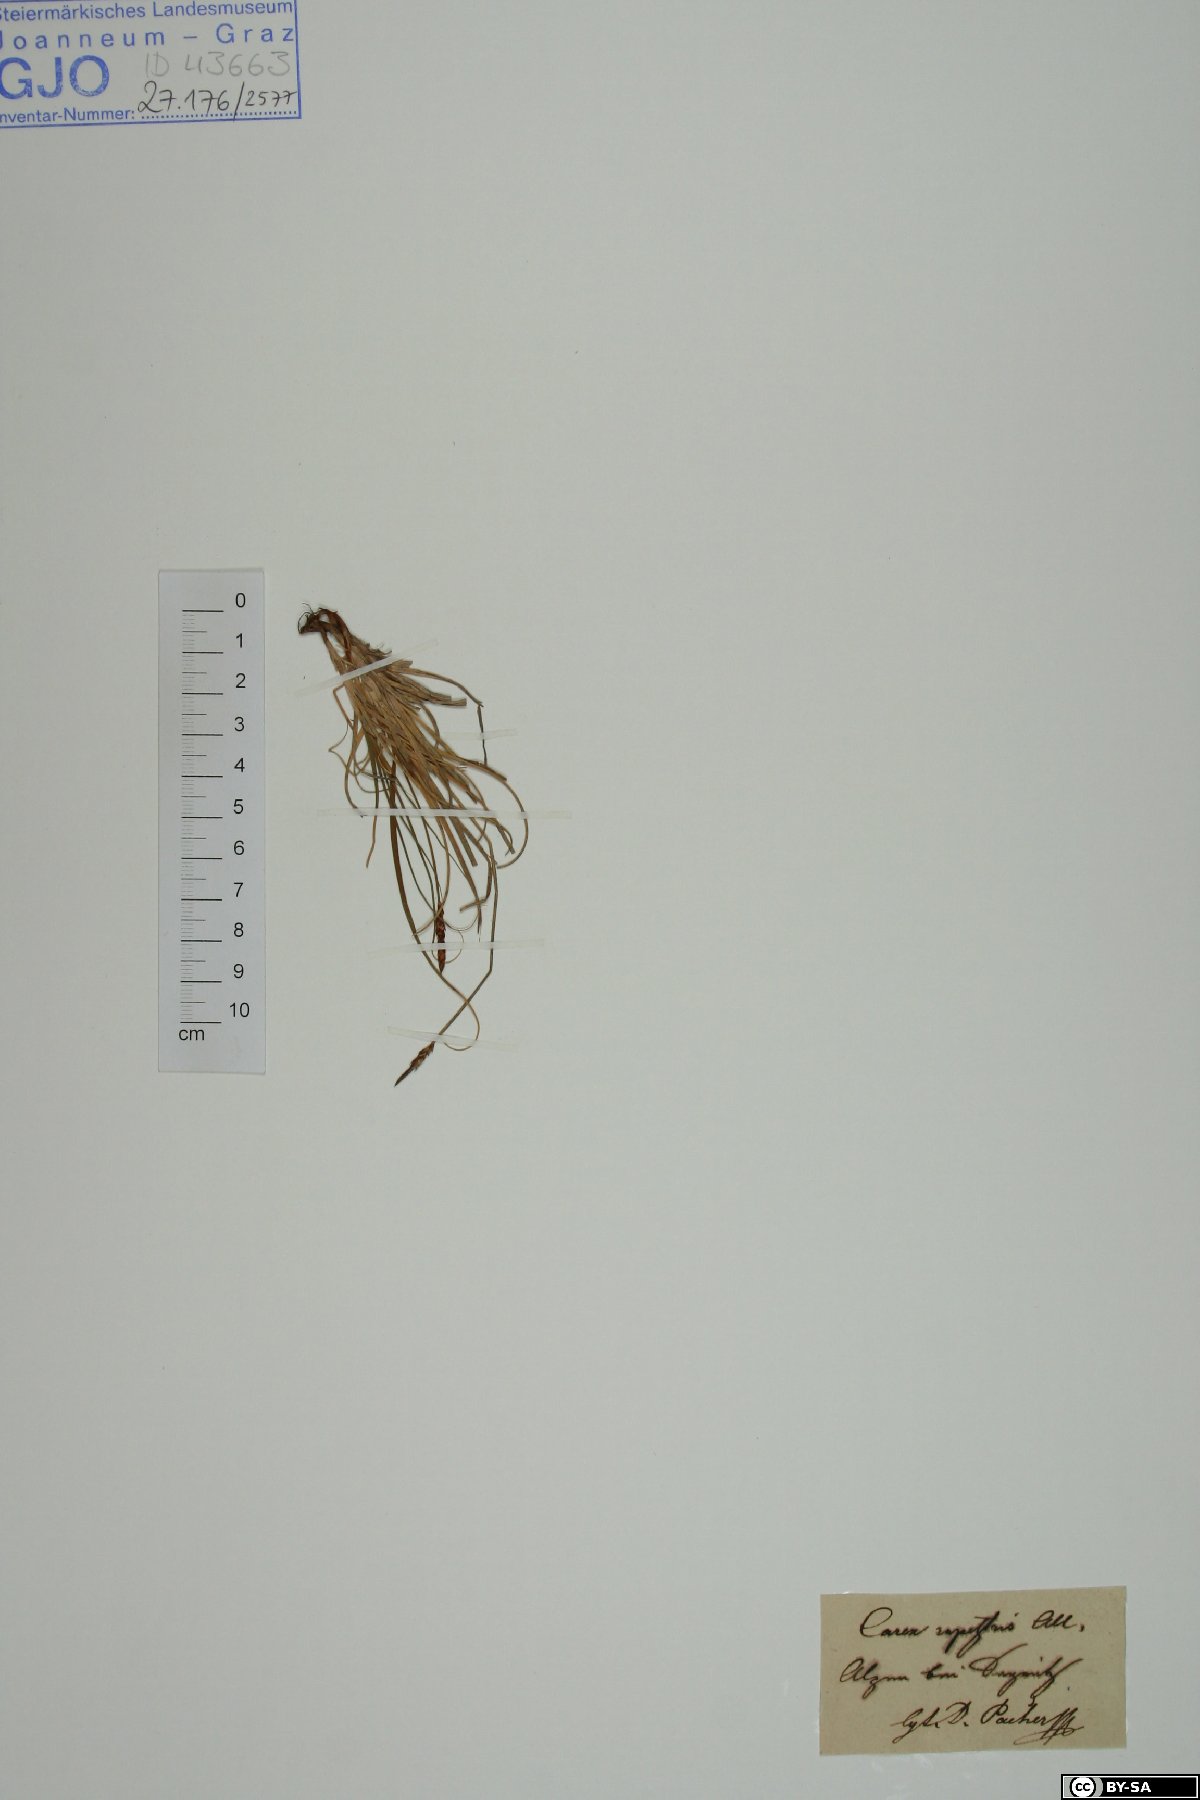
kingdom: Plantae
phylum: Tracheophyta
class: Liliopsida
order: Poales
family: Cyperaceae
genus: Carex
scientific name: Carex rupestris
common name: Rock sedge
